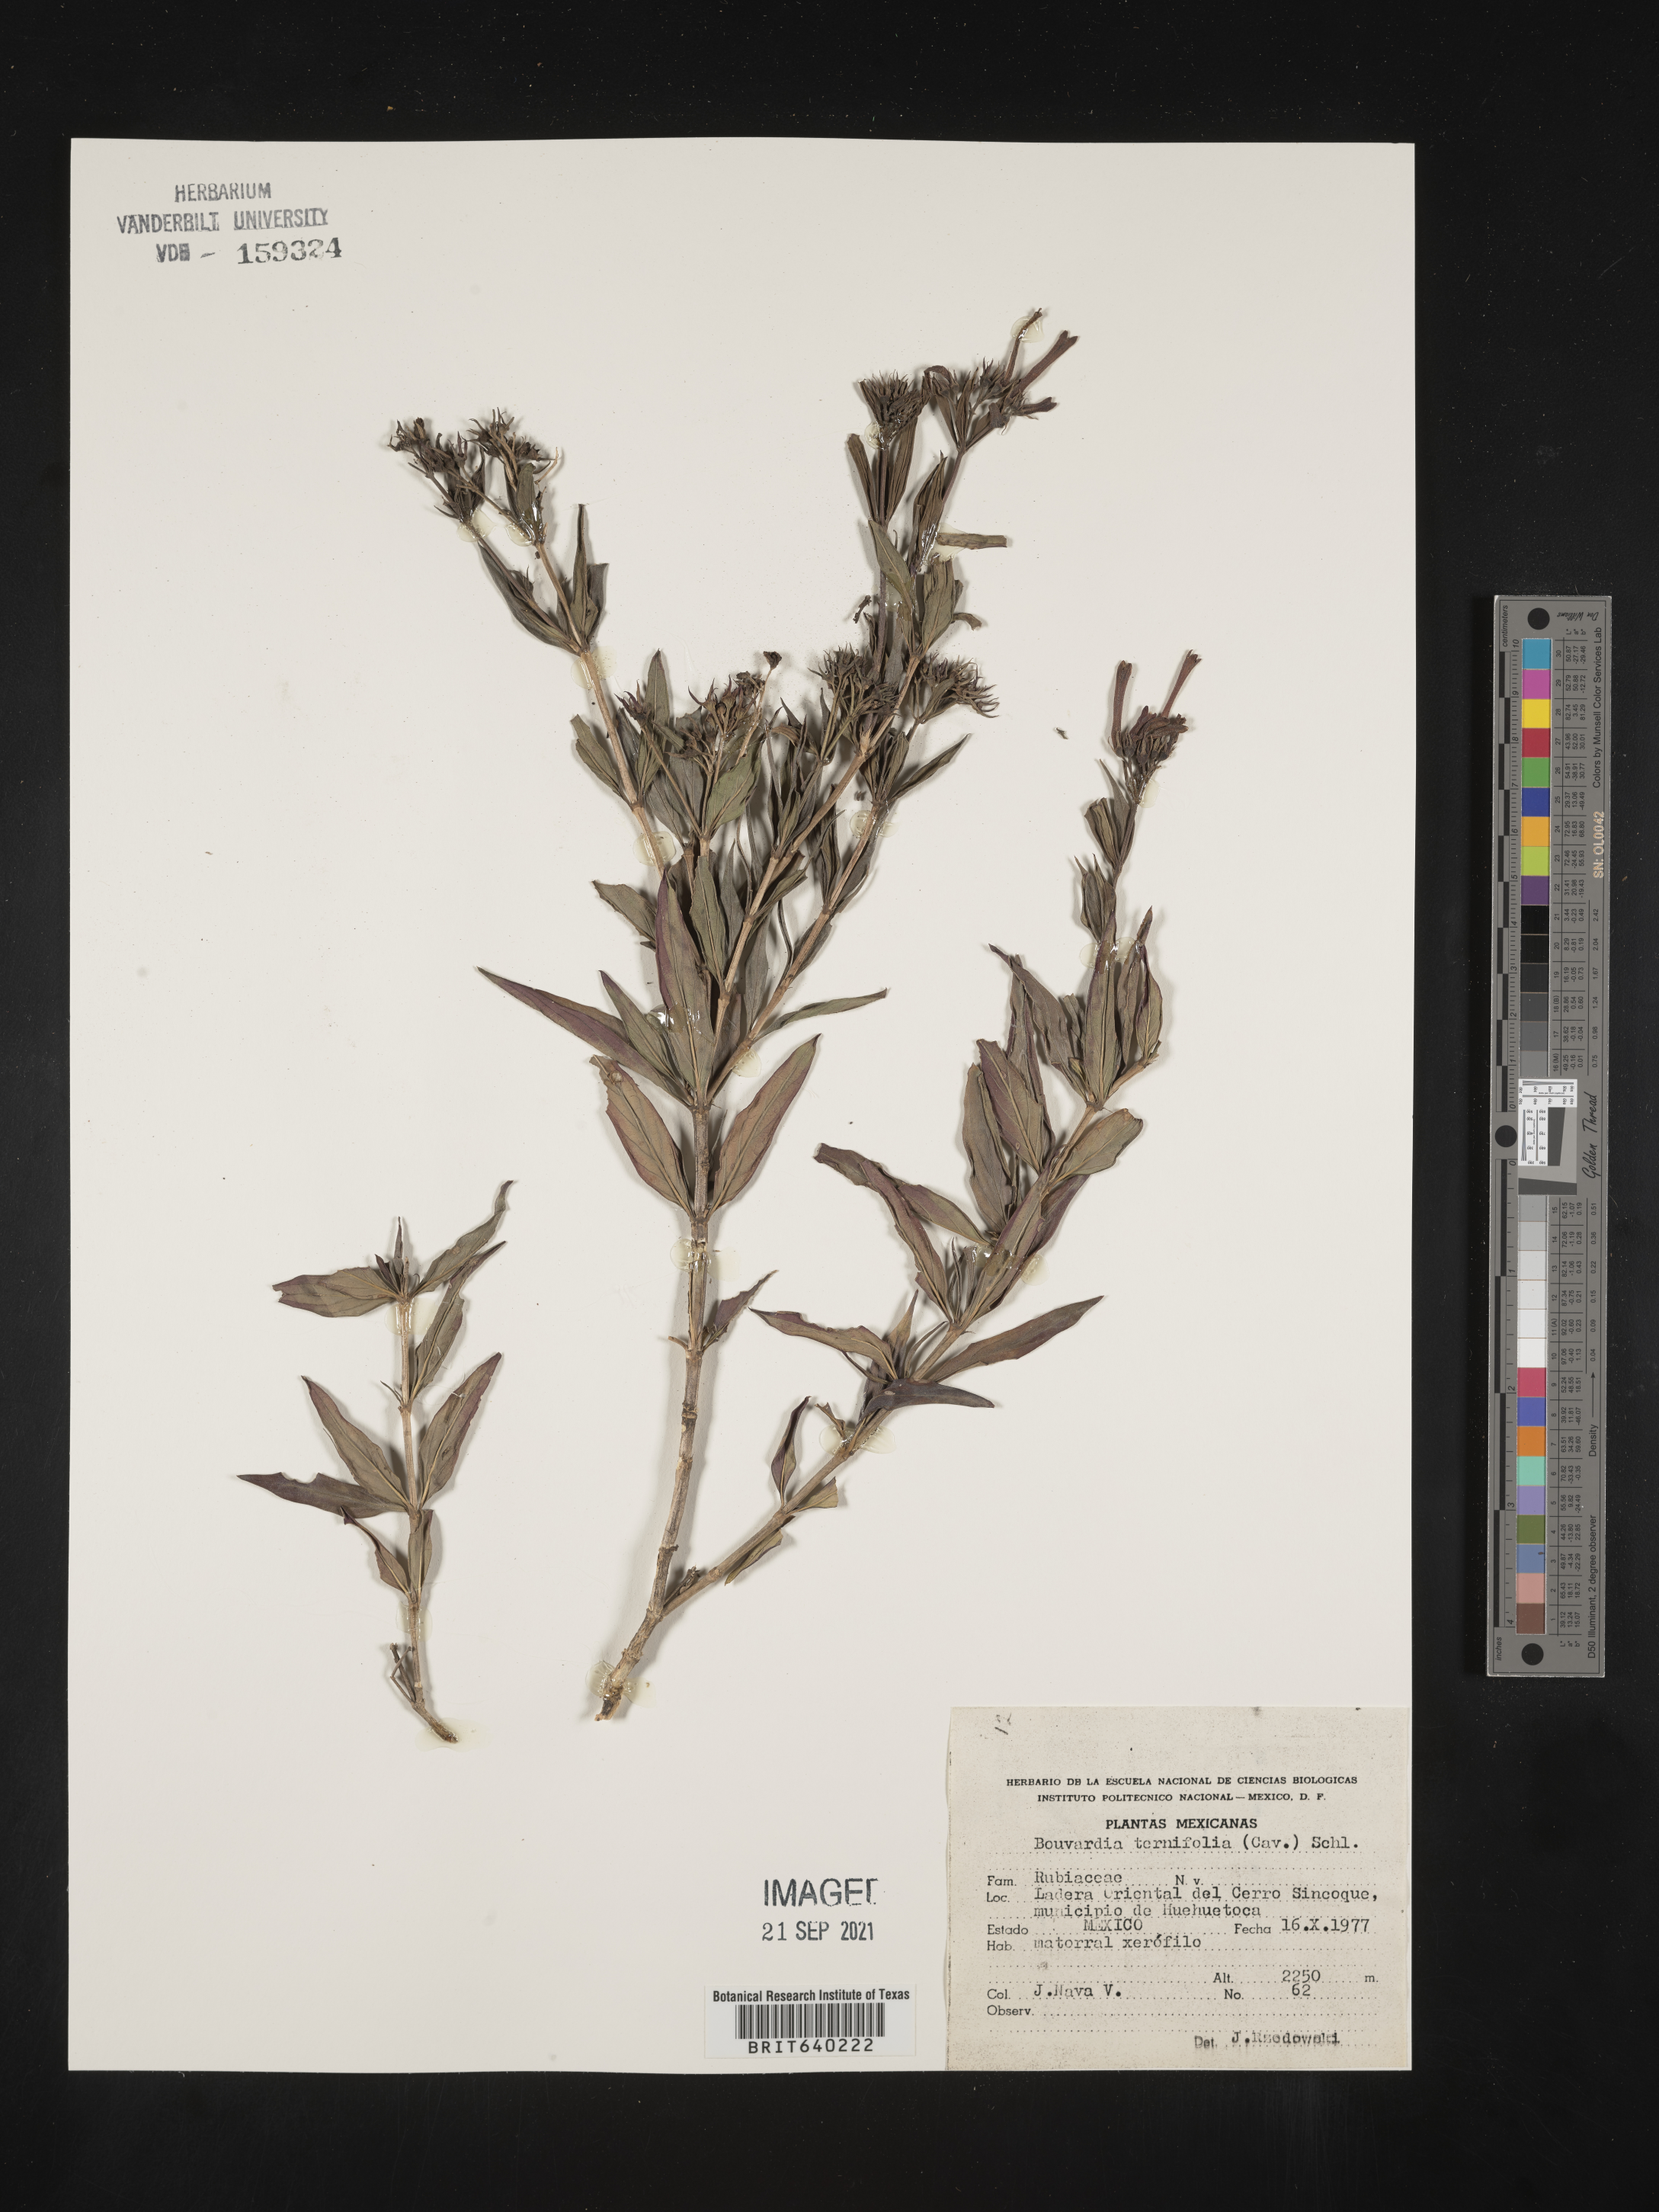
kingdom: Plantae
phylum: Tracheophyta
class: Magnoliopsida
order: Gentianales
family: Rubiaceae
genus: Bouvardia
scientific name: Bouvardia
